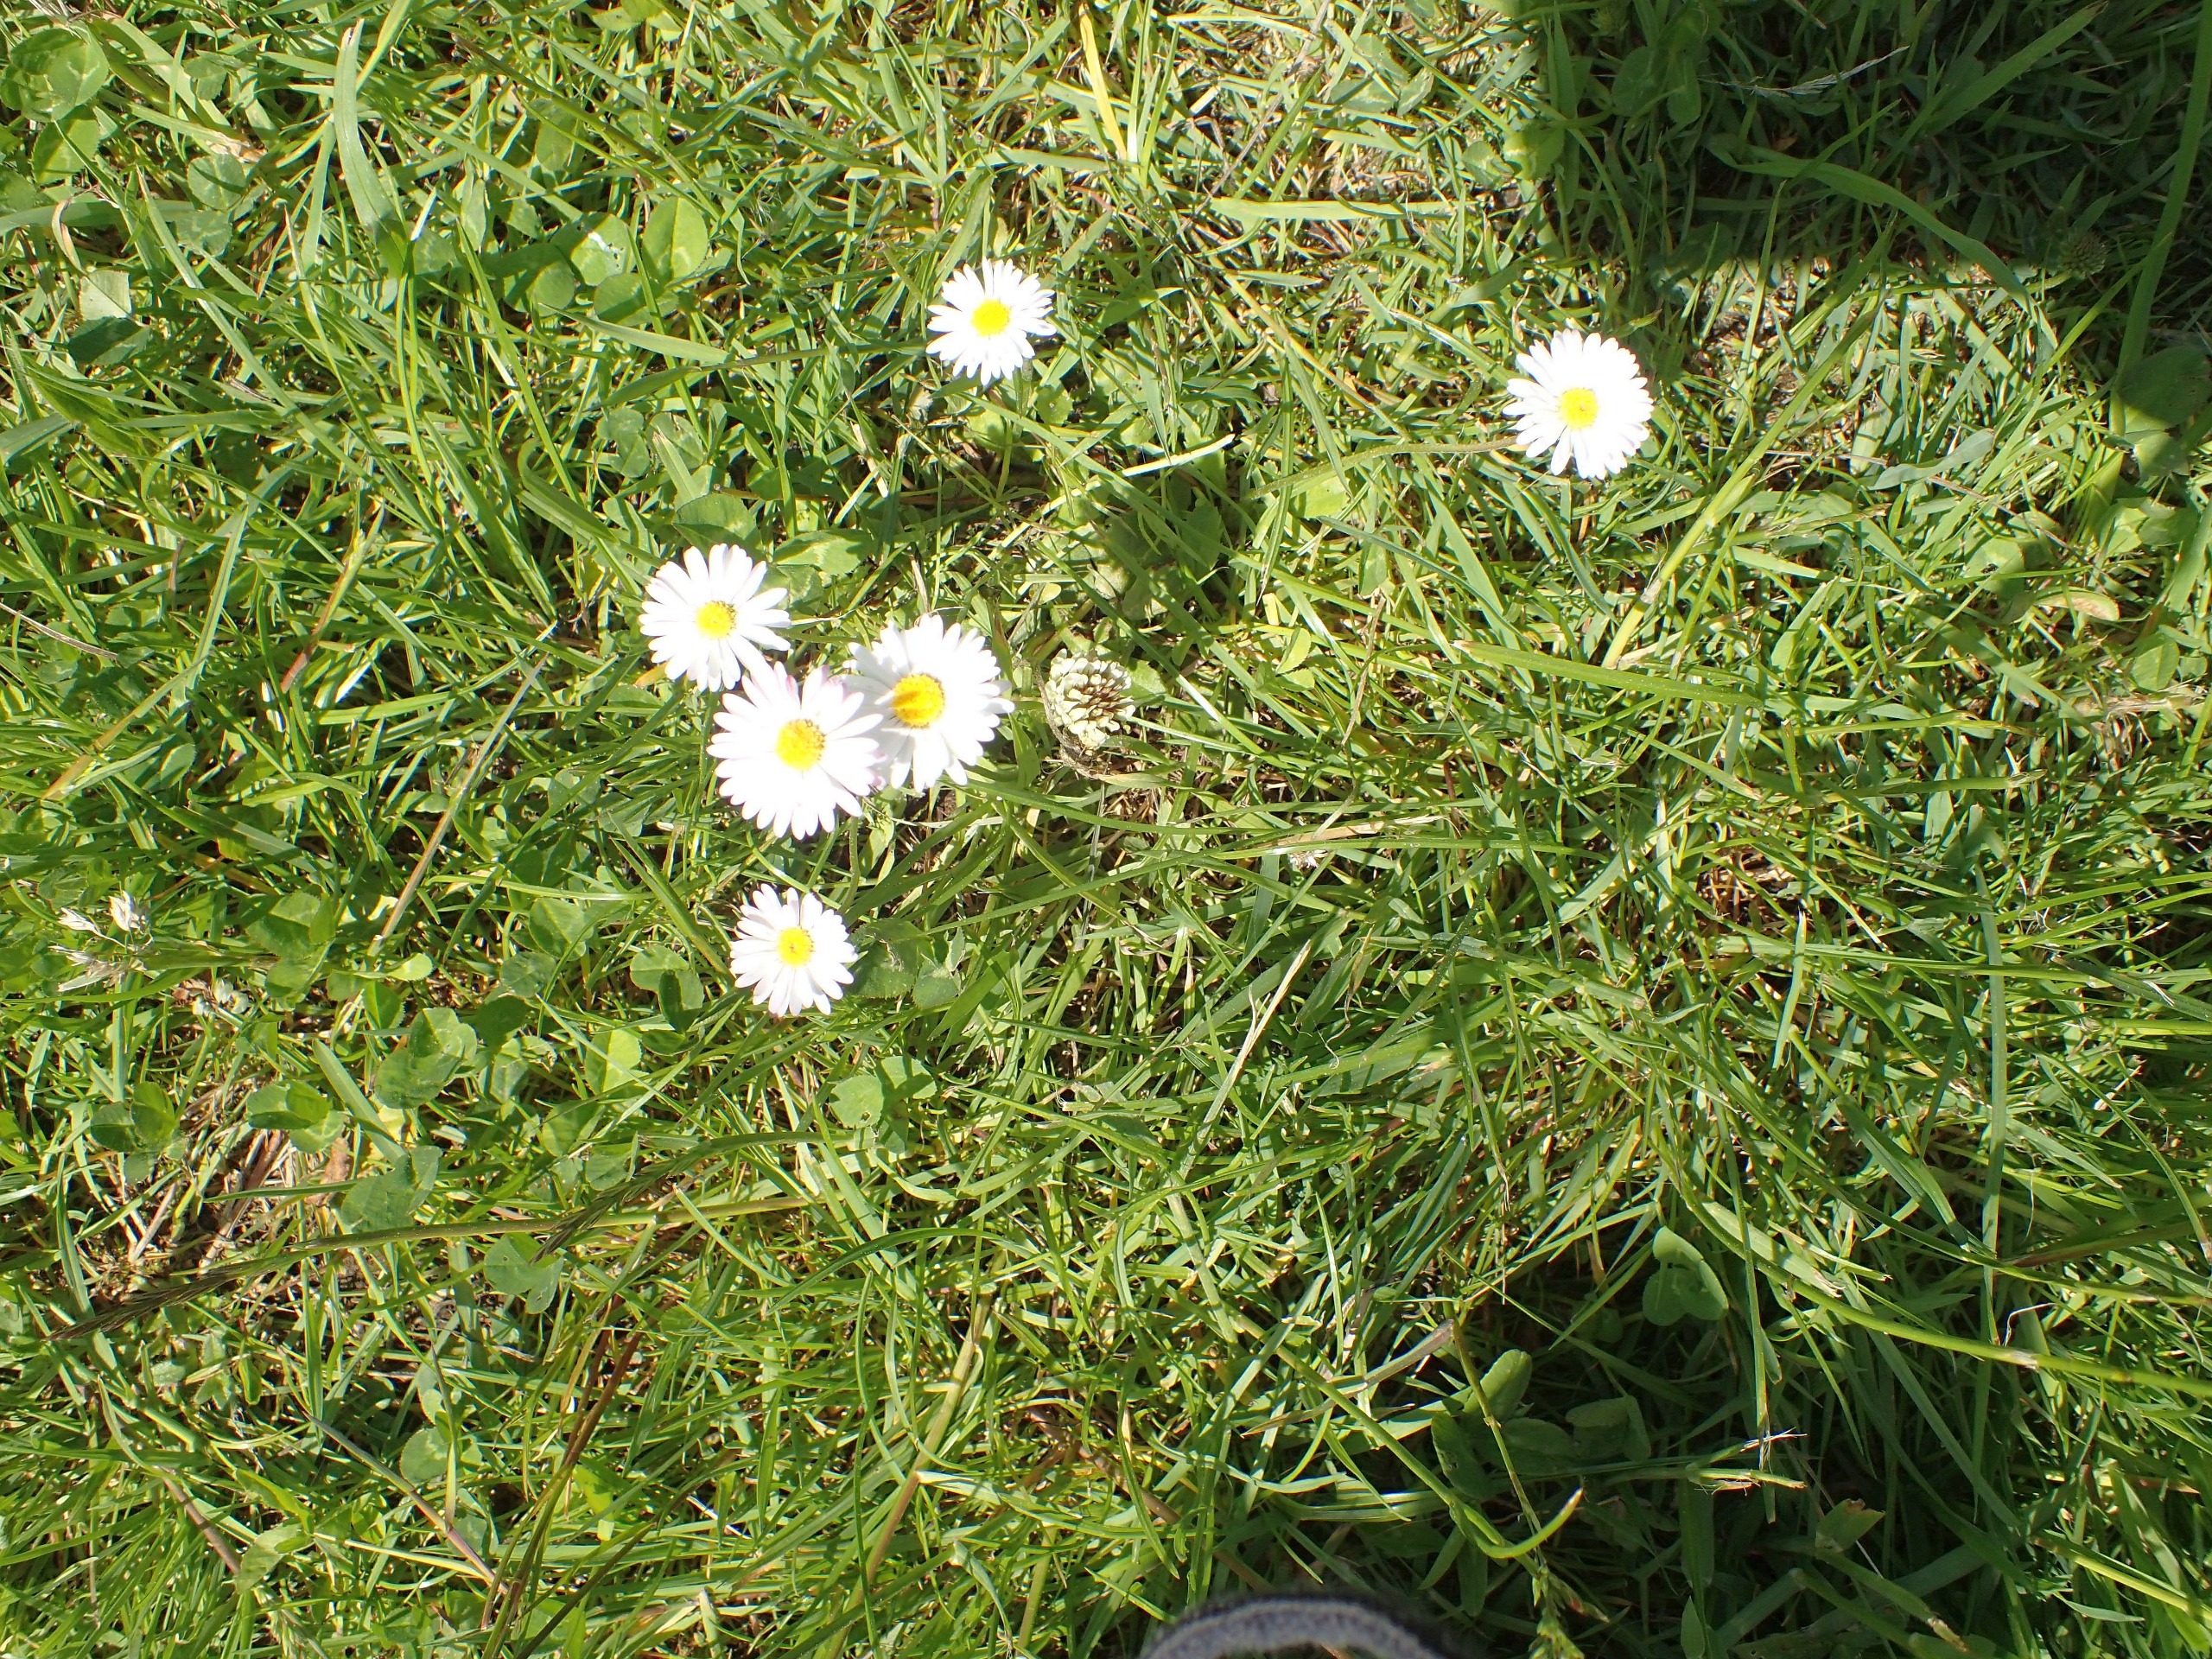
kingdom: Plantae
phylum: Tracheophyta
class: Magnoliopsida
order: Asterales
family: Asteraceae
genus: Bellis
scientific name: Bellis perennis
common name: Tusindfryd
